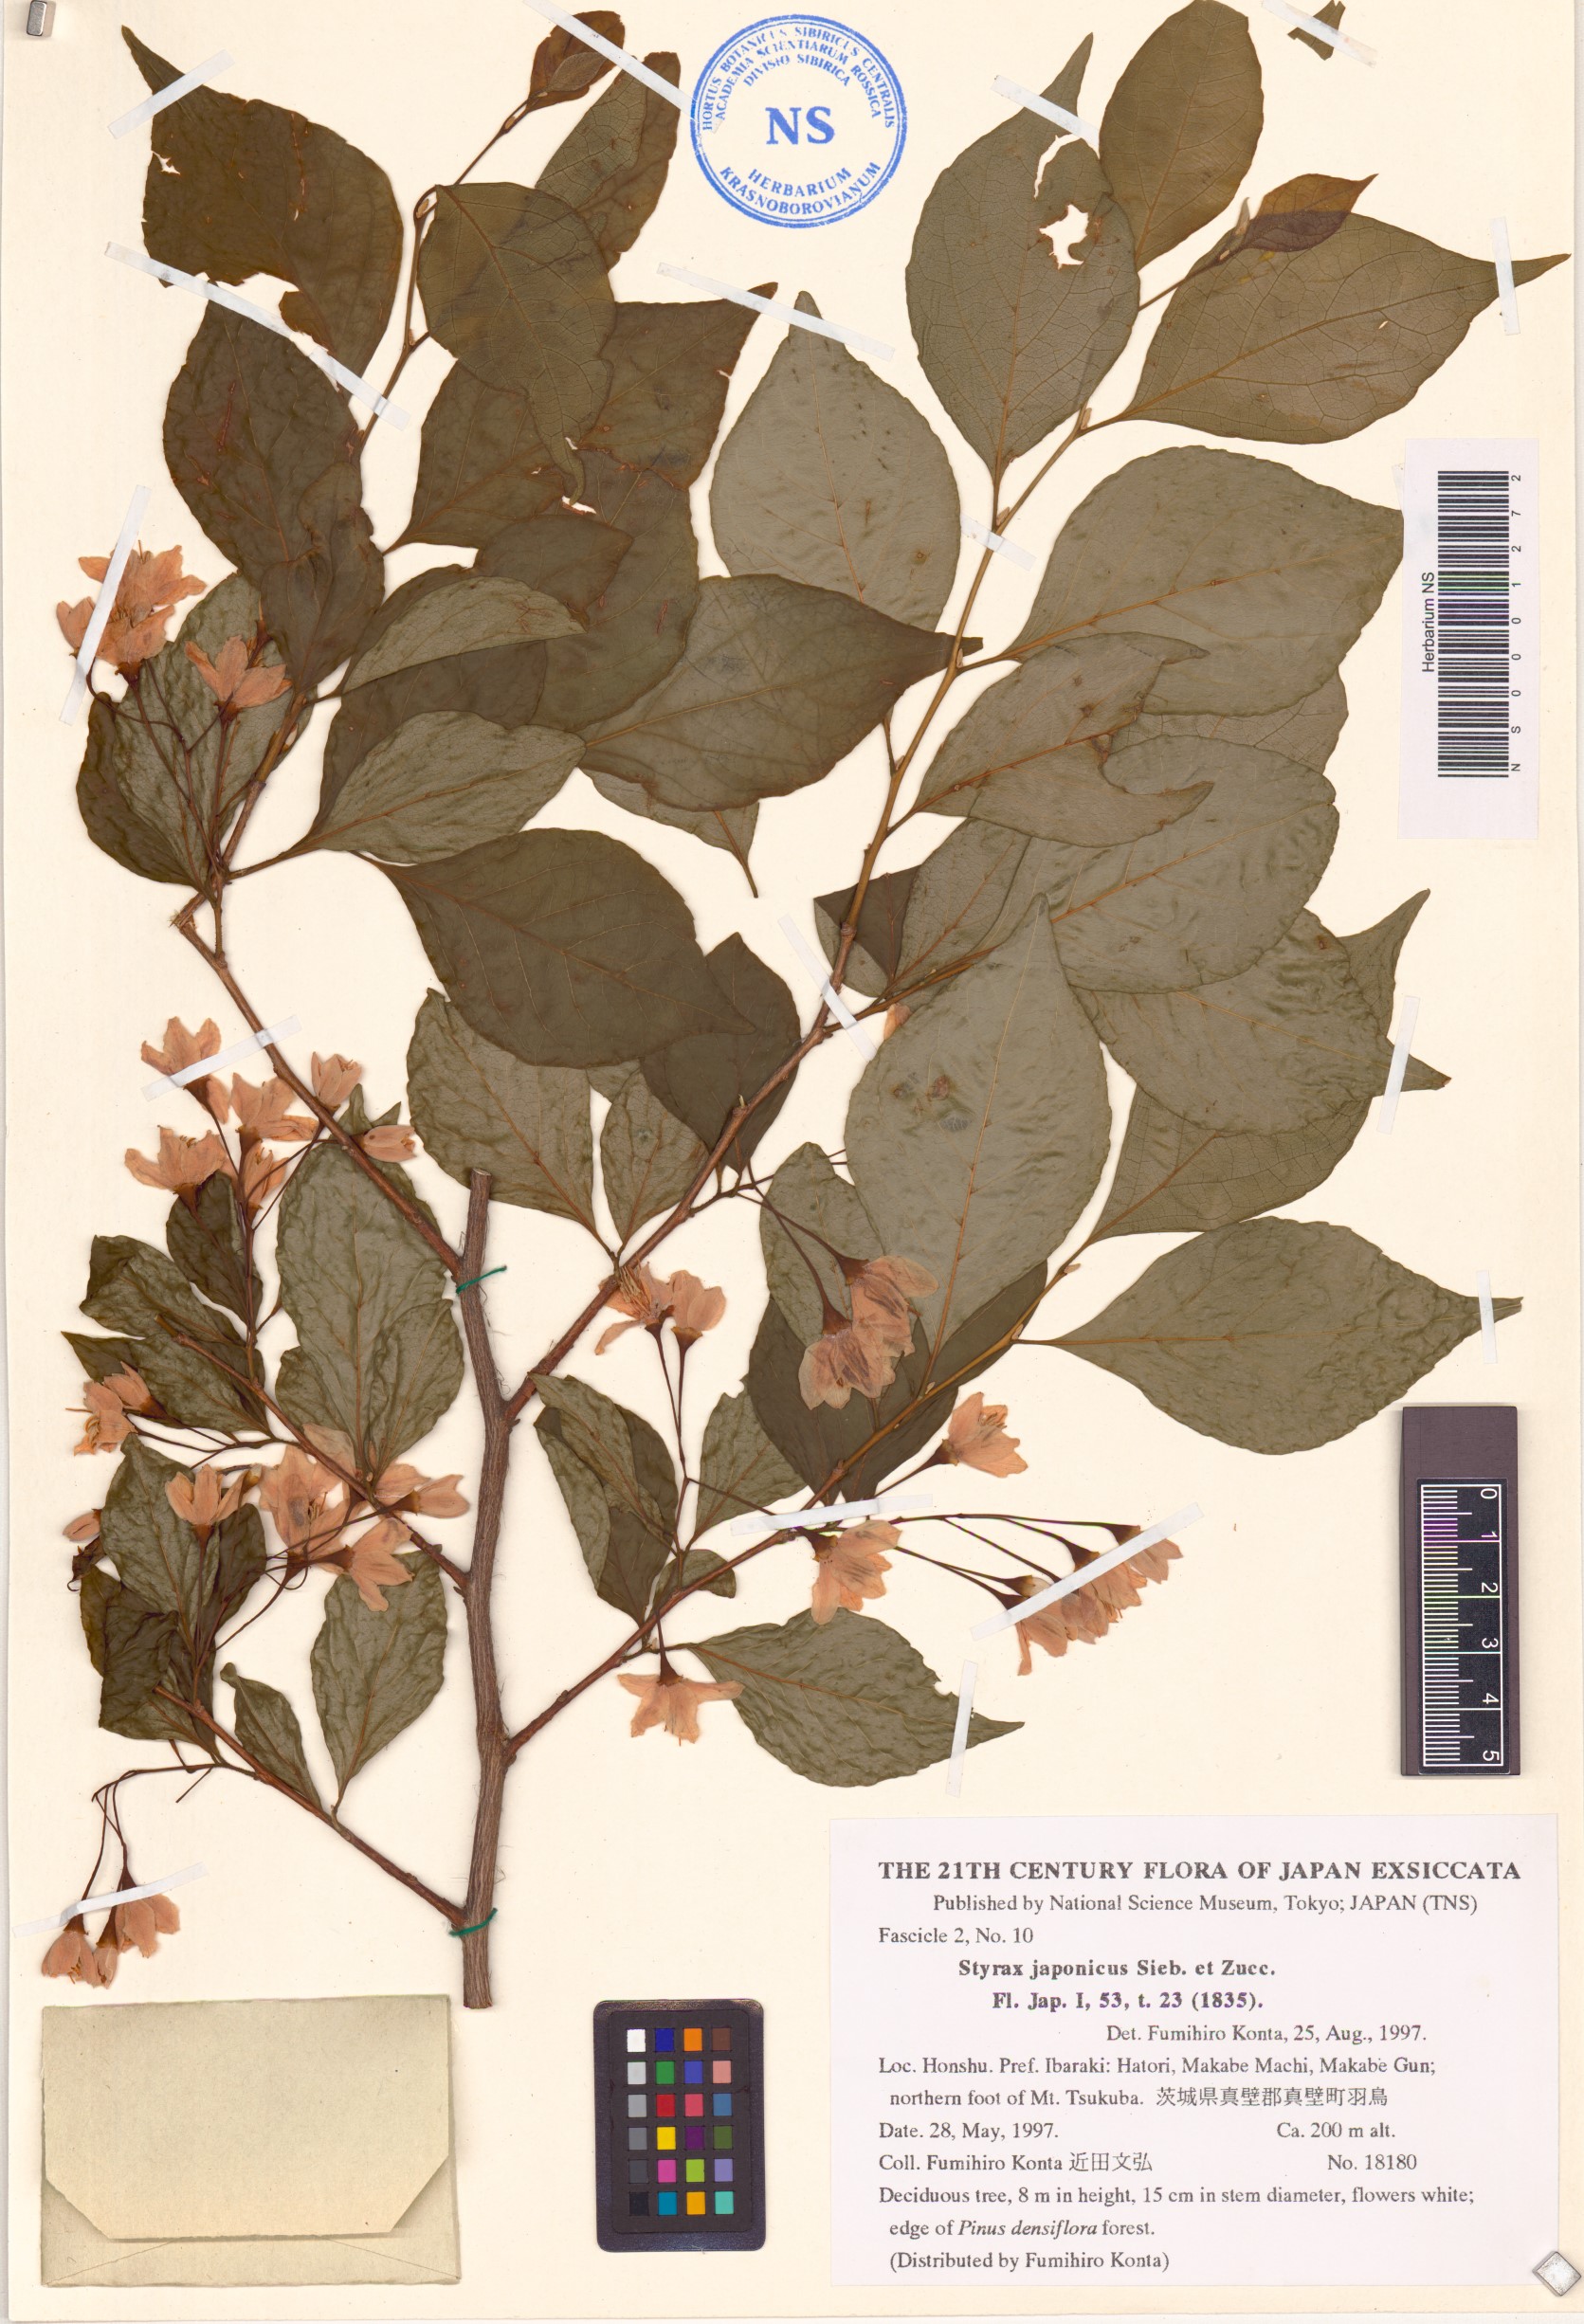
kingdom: Plantae
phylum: Tracheophyta
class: Magnoliopsida
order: Ericales
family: Styracaceae
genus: Styrax
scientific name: Styrax japonicus
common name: Japanese snowbell
